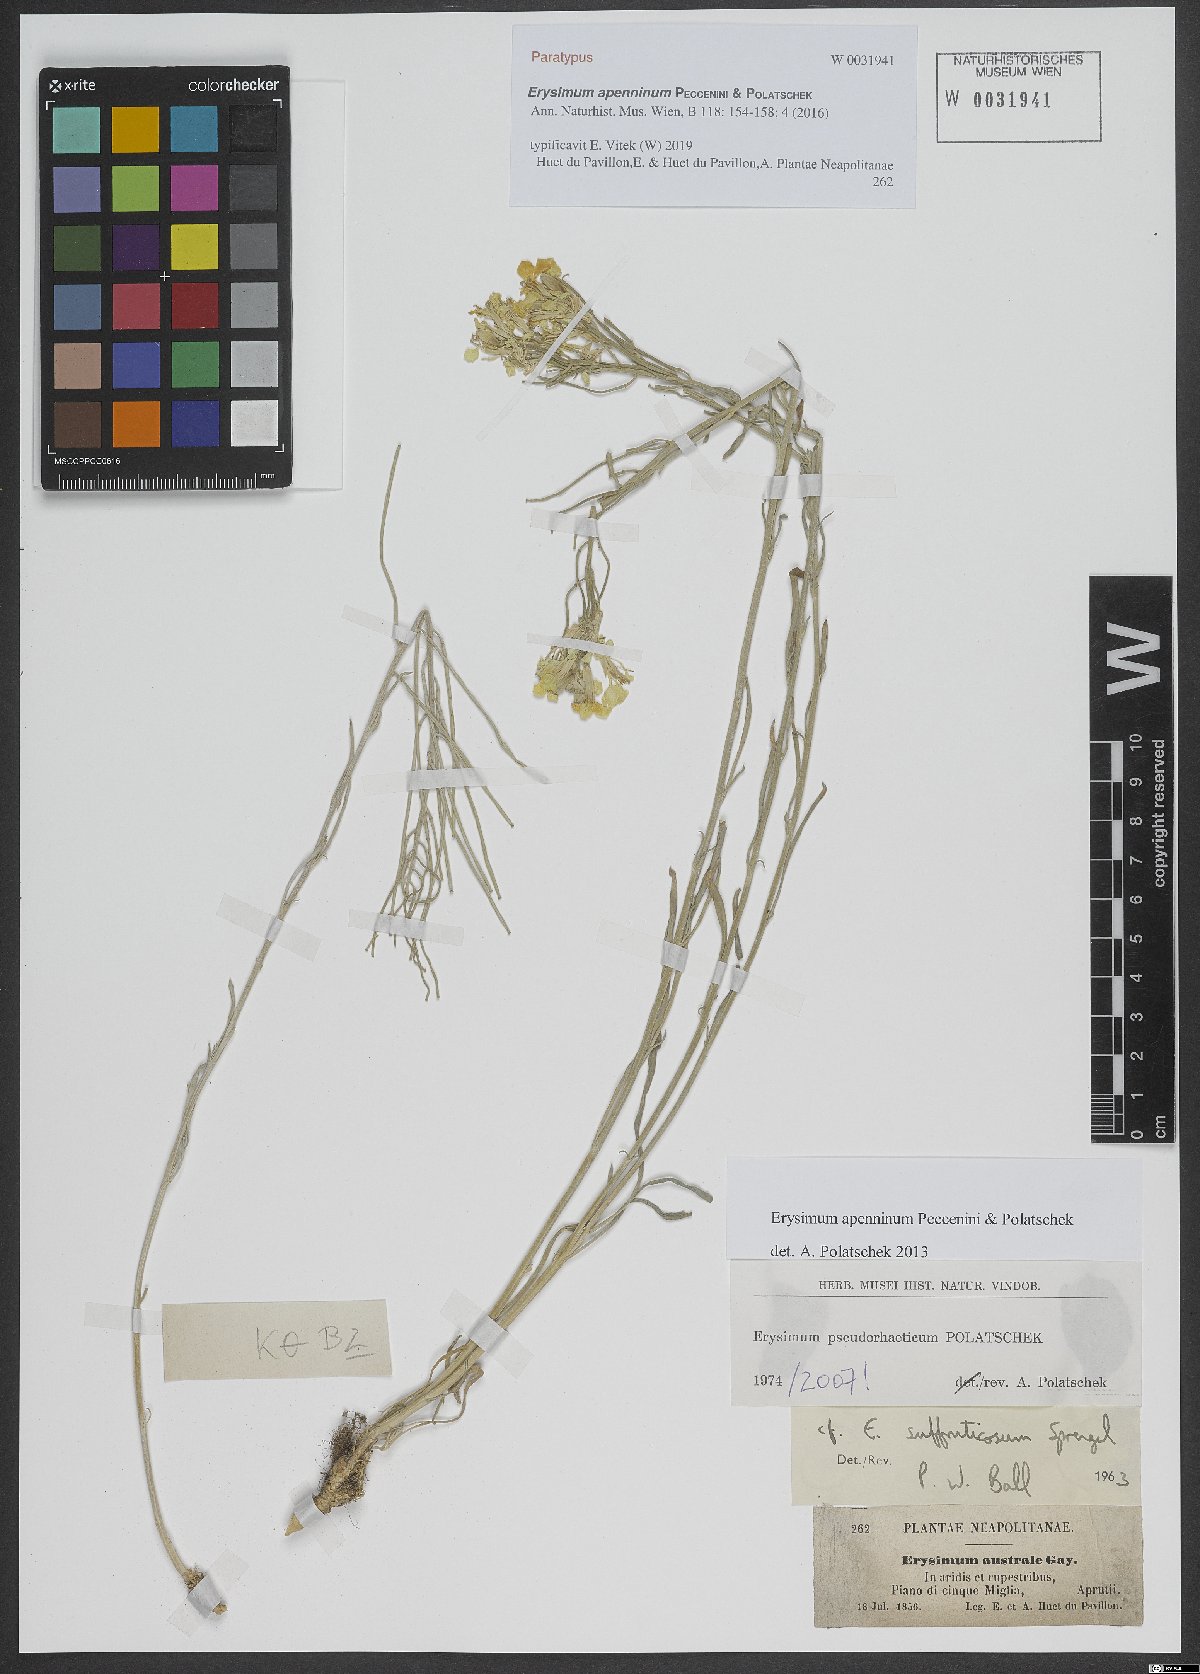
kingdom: Plantae
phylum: Tracheophyta
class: Magnoliopsida
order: Brassicales
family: Brassicaceae
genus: Erysimum
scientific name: Erysimum apenninum
